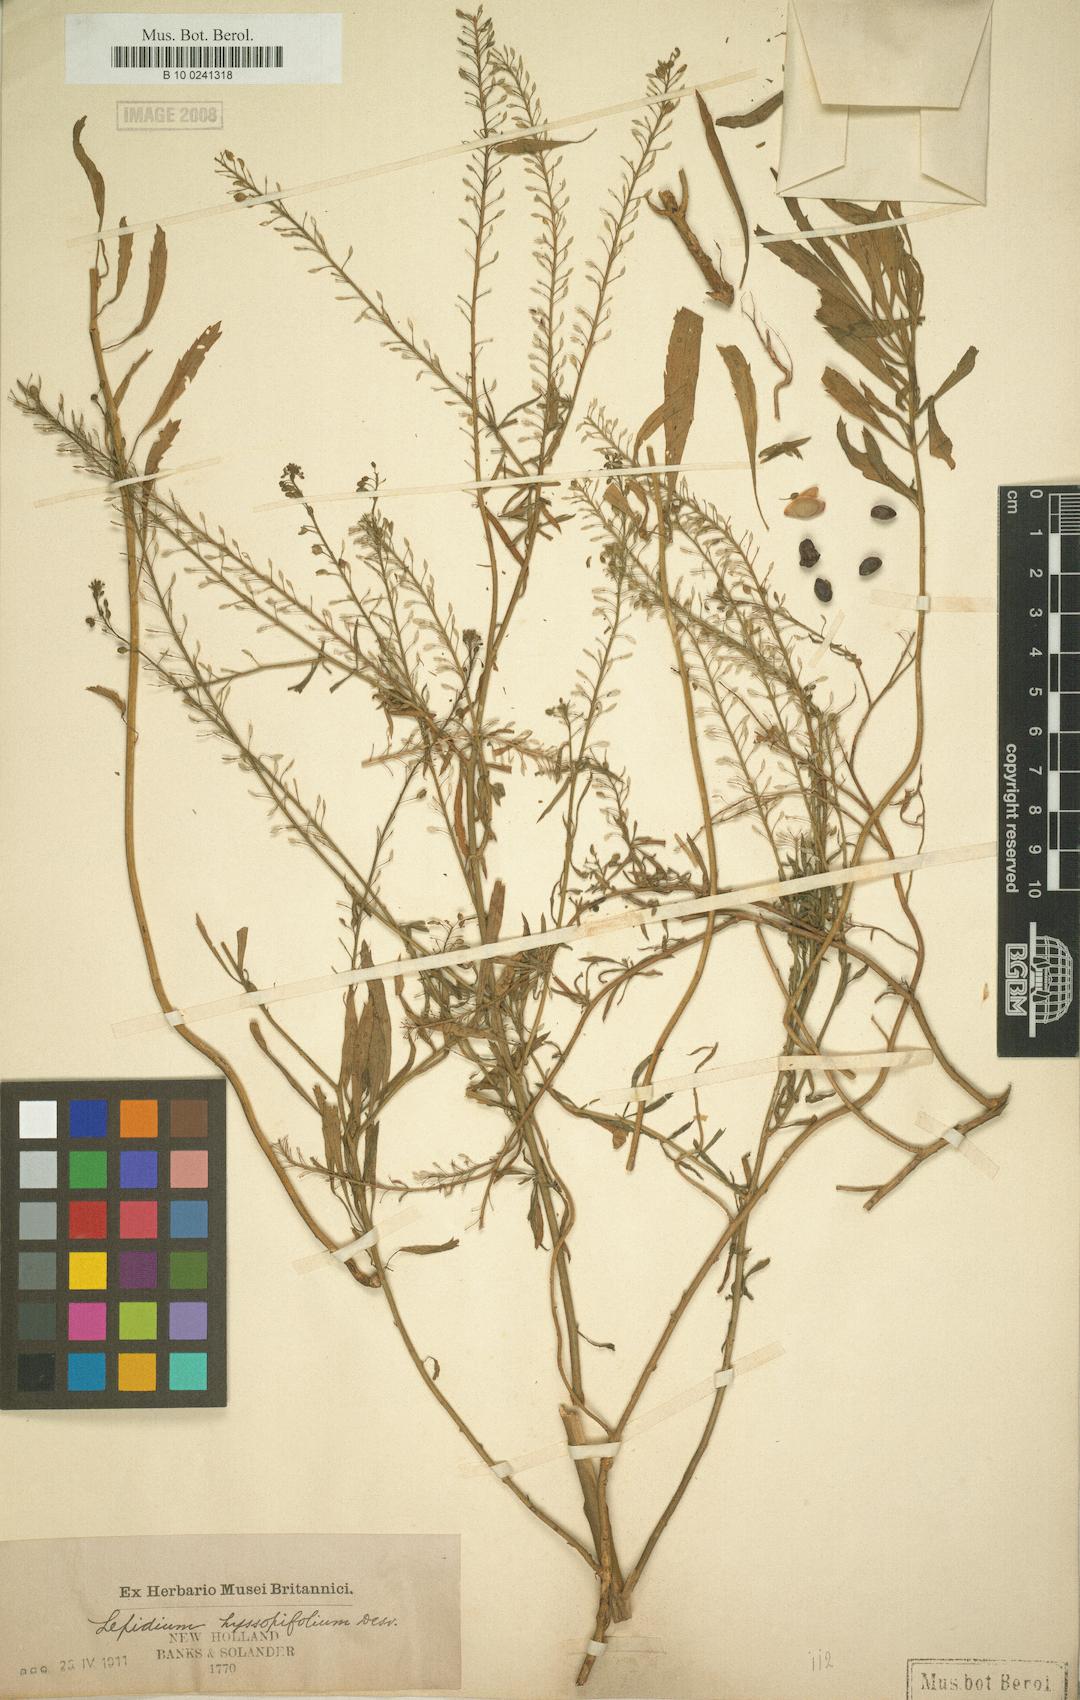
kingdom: Plantae
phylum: Tracheophyta
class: Magnoliopsida
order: Brassicales
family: Brassicaceae
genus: Lepidium
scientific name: Lepidium africanum
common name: African pepperwort
